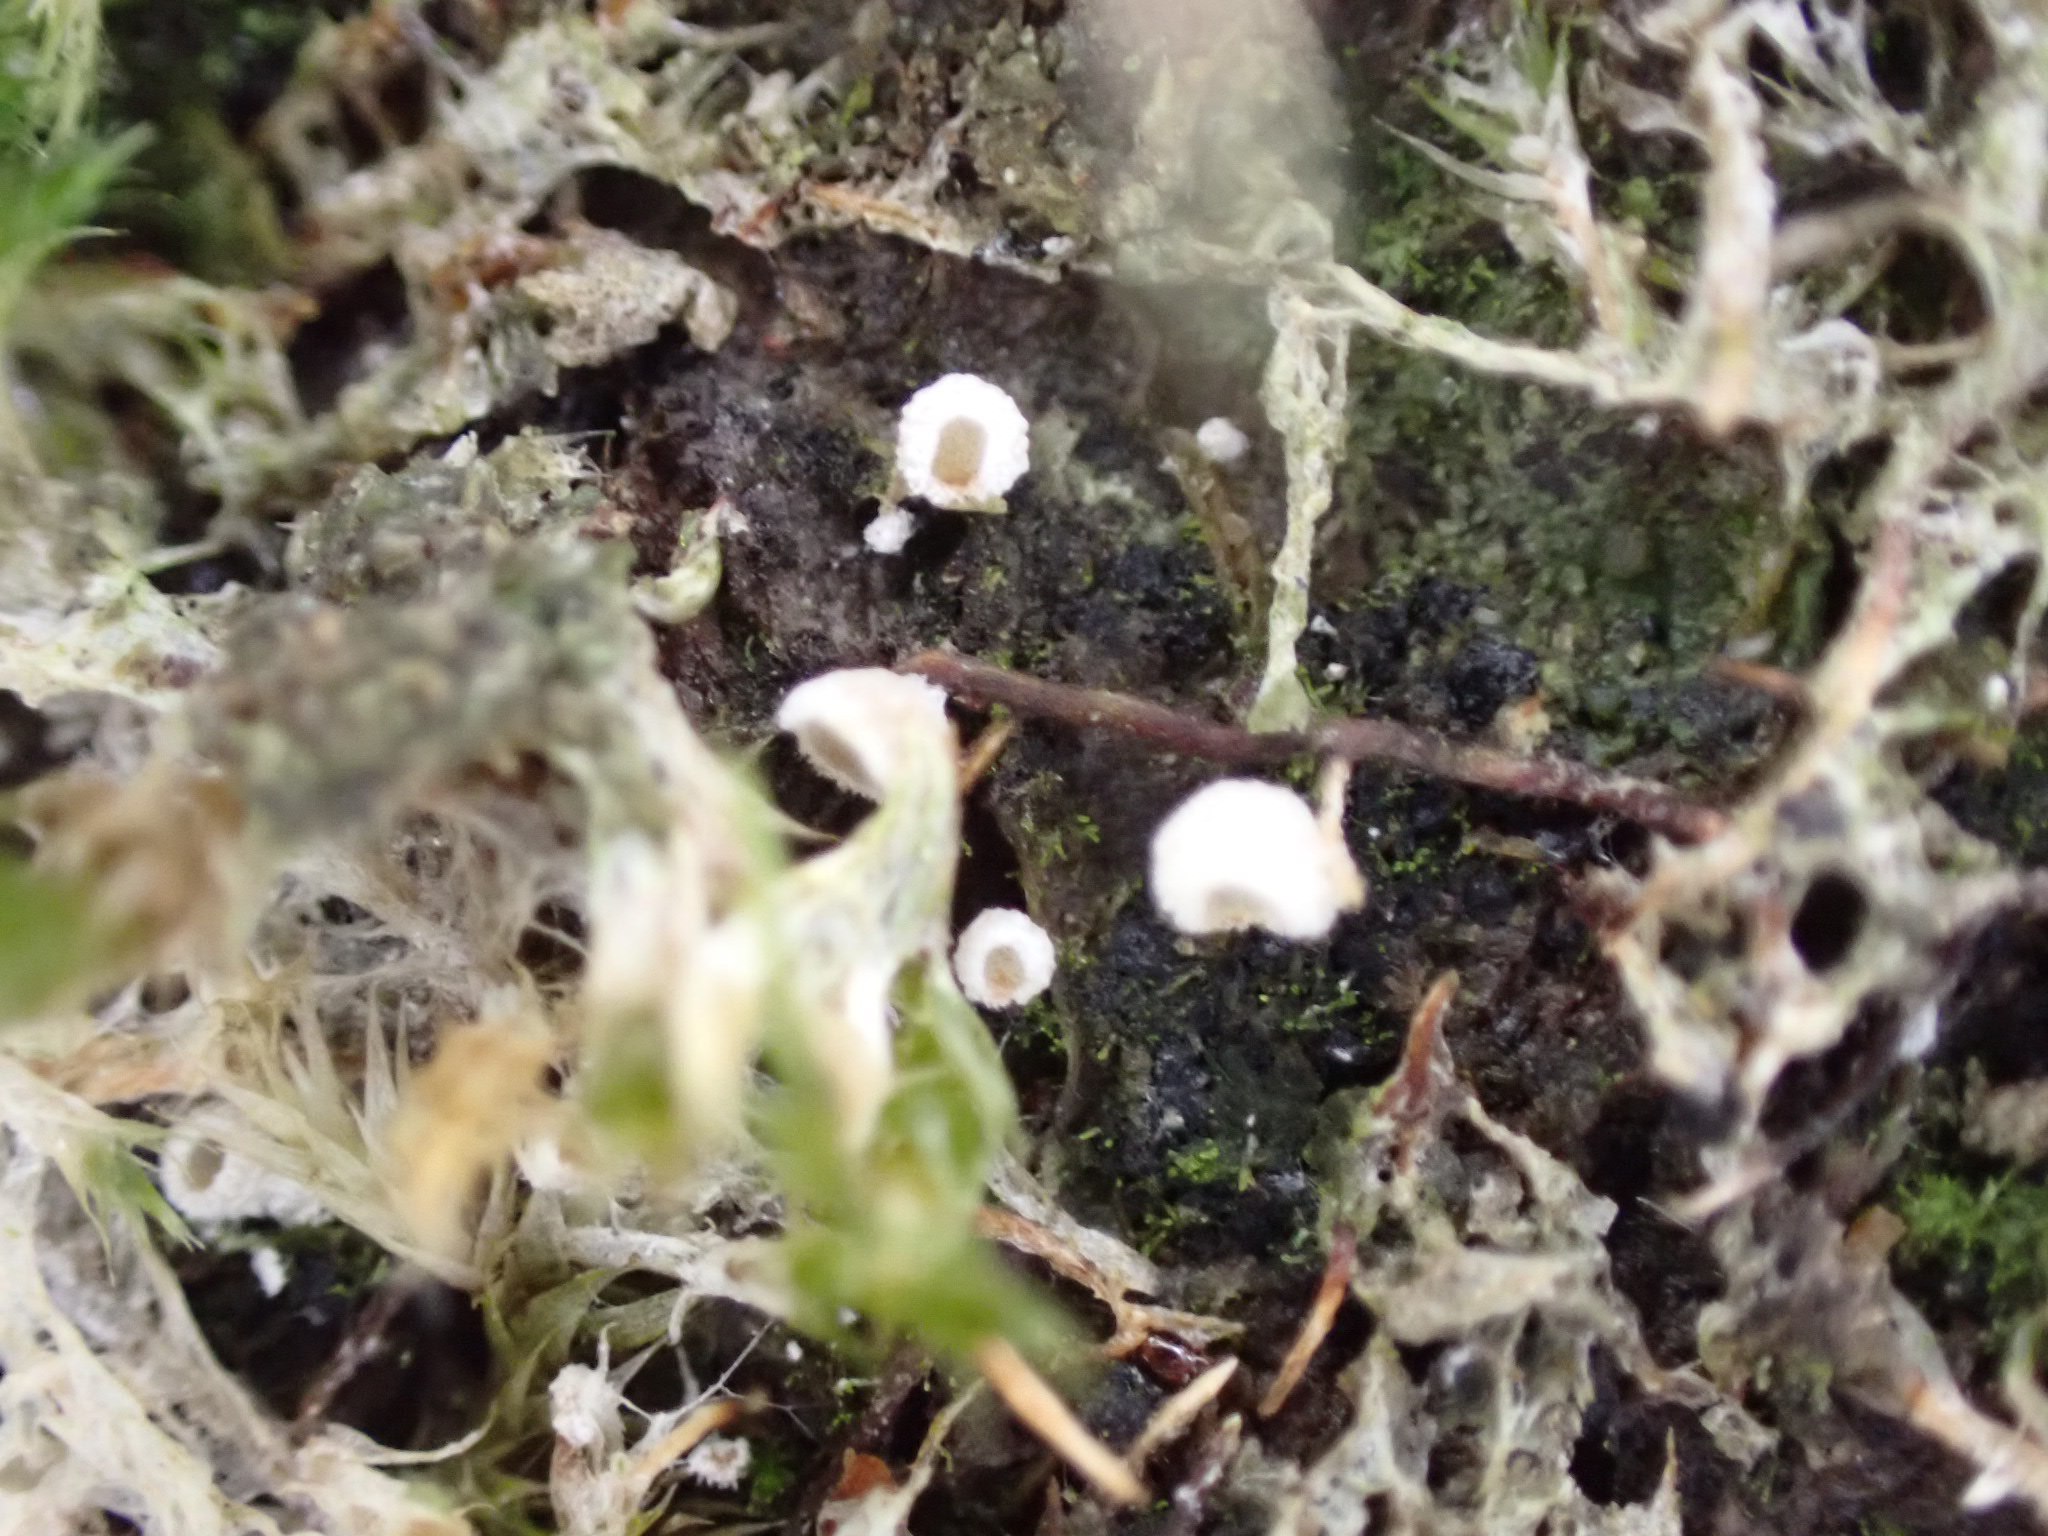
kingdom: Fungi
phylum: Basidiomycota
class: Agaricomycetes
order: Agaricales
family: Chromocyphellaceae
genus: Chromocyphella
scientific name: Chromocyphella muscicola
